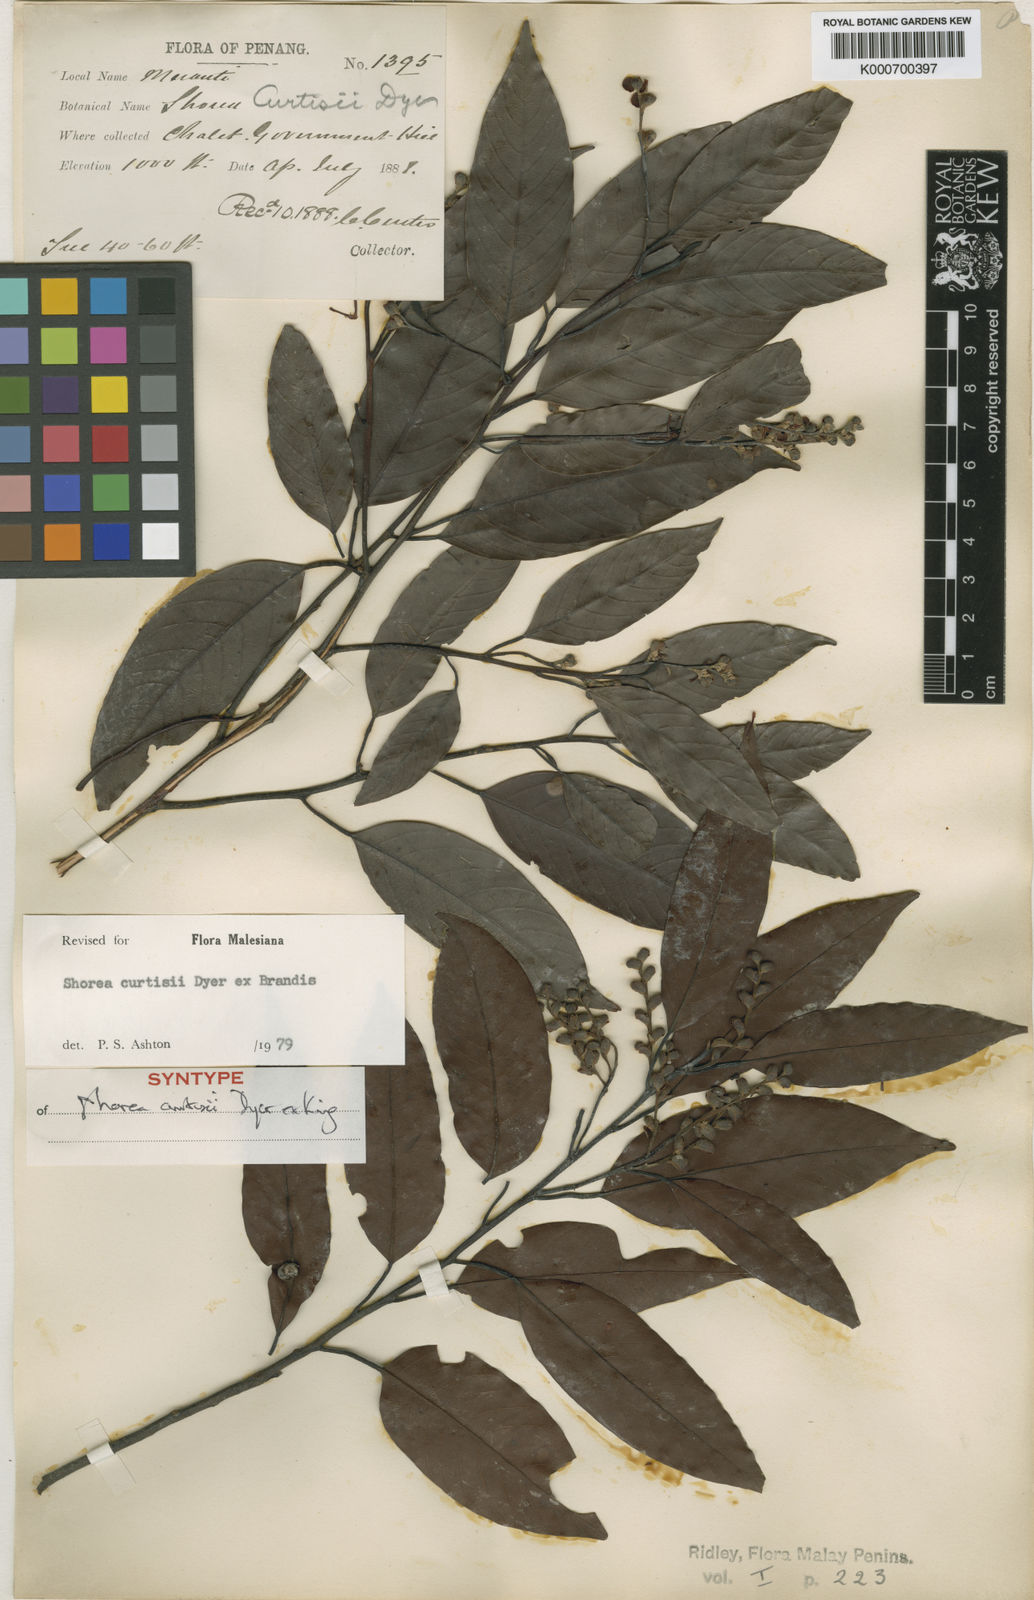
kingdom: Plantae
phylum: Tracheophyta
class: Magnoliopsida
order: Malvales
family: Dipterocarpaceae
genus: Shorea
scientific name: Shorea curtisii
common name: Dark red meranti
